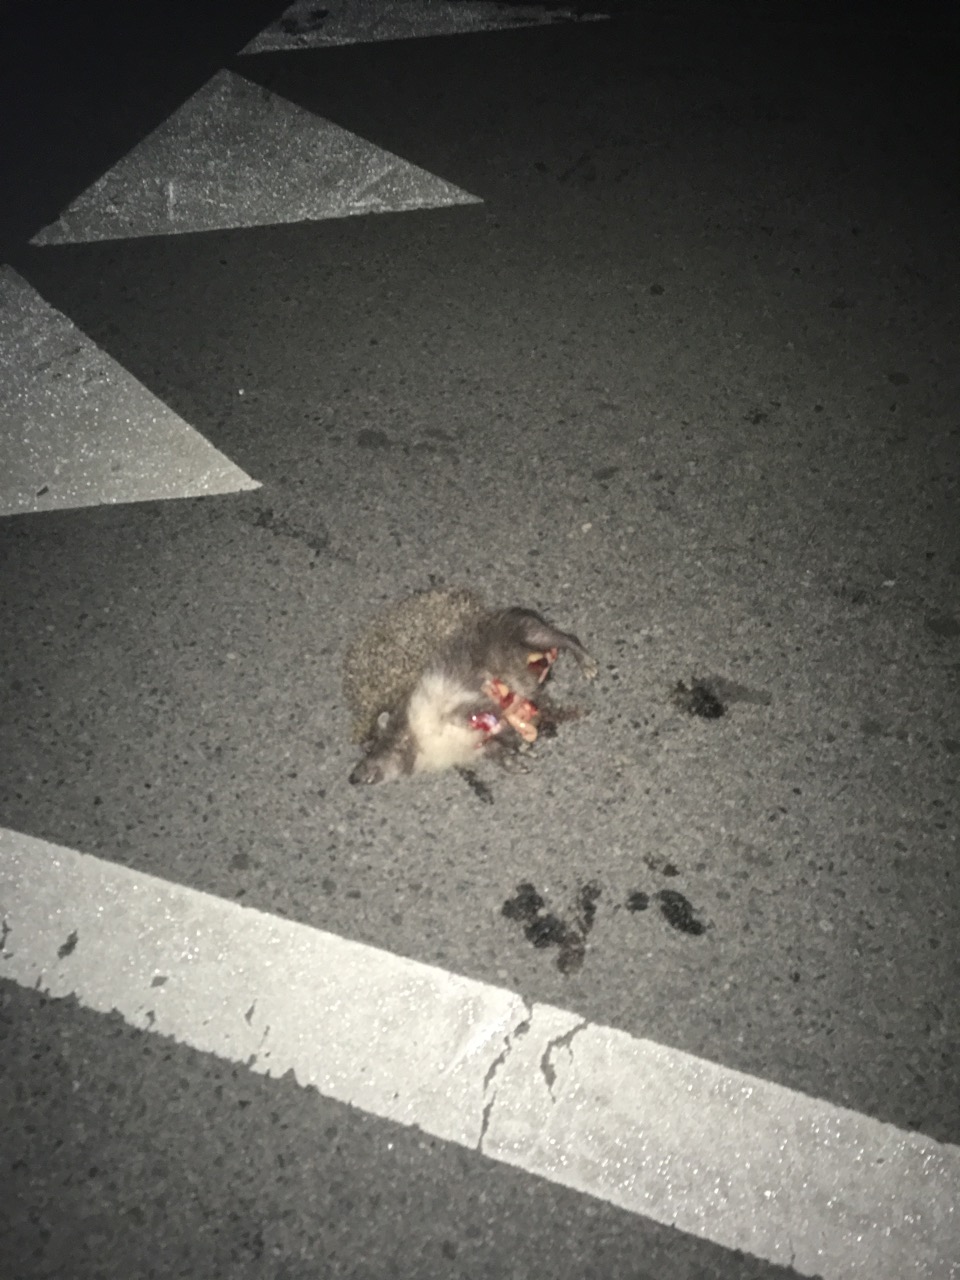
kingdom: Animalia
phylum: Chordata
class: Mammalia
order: Erinaceomorpha
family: Erinaceidae
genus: Erinaceus
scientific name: Erinaceus
